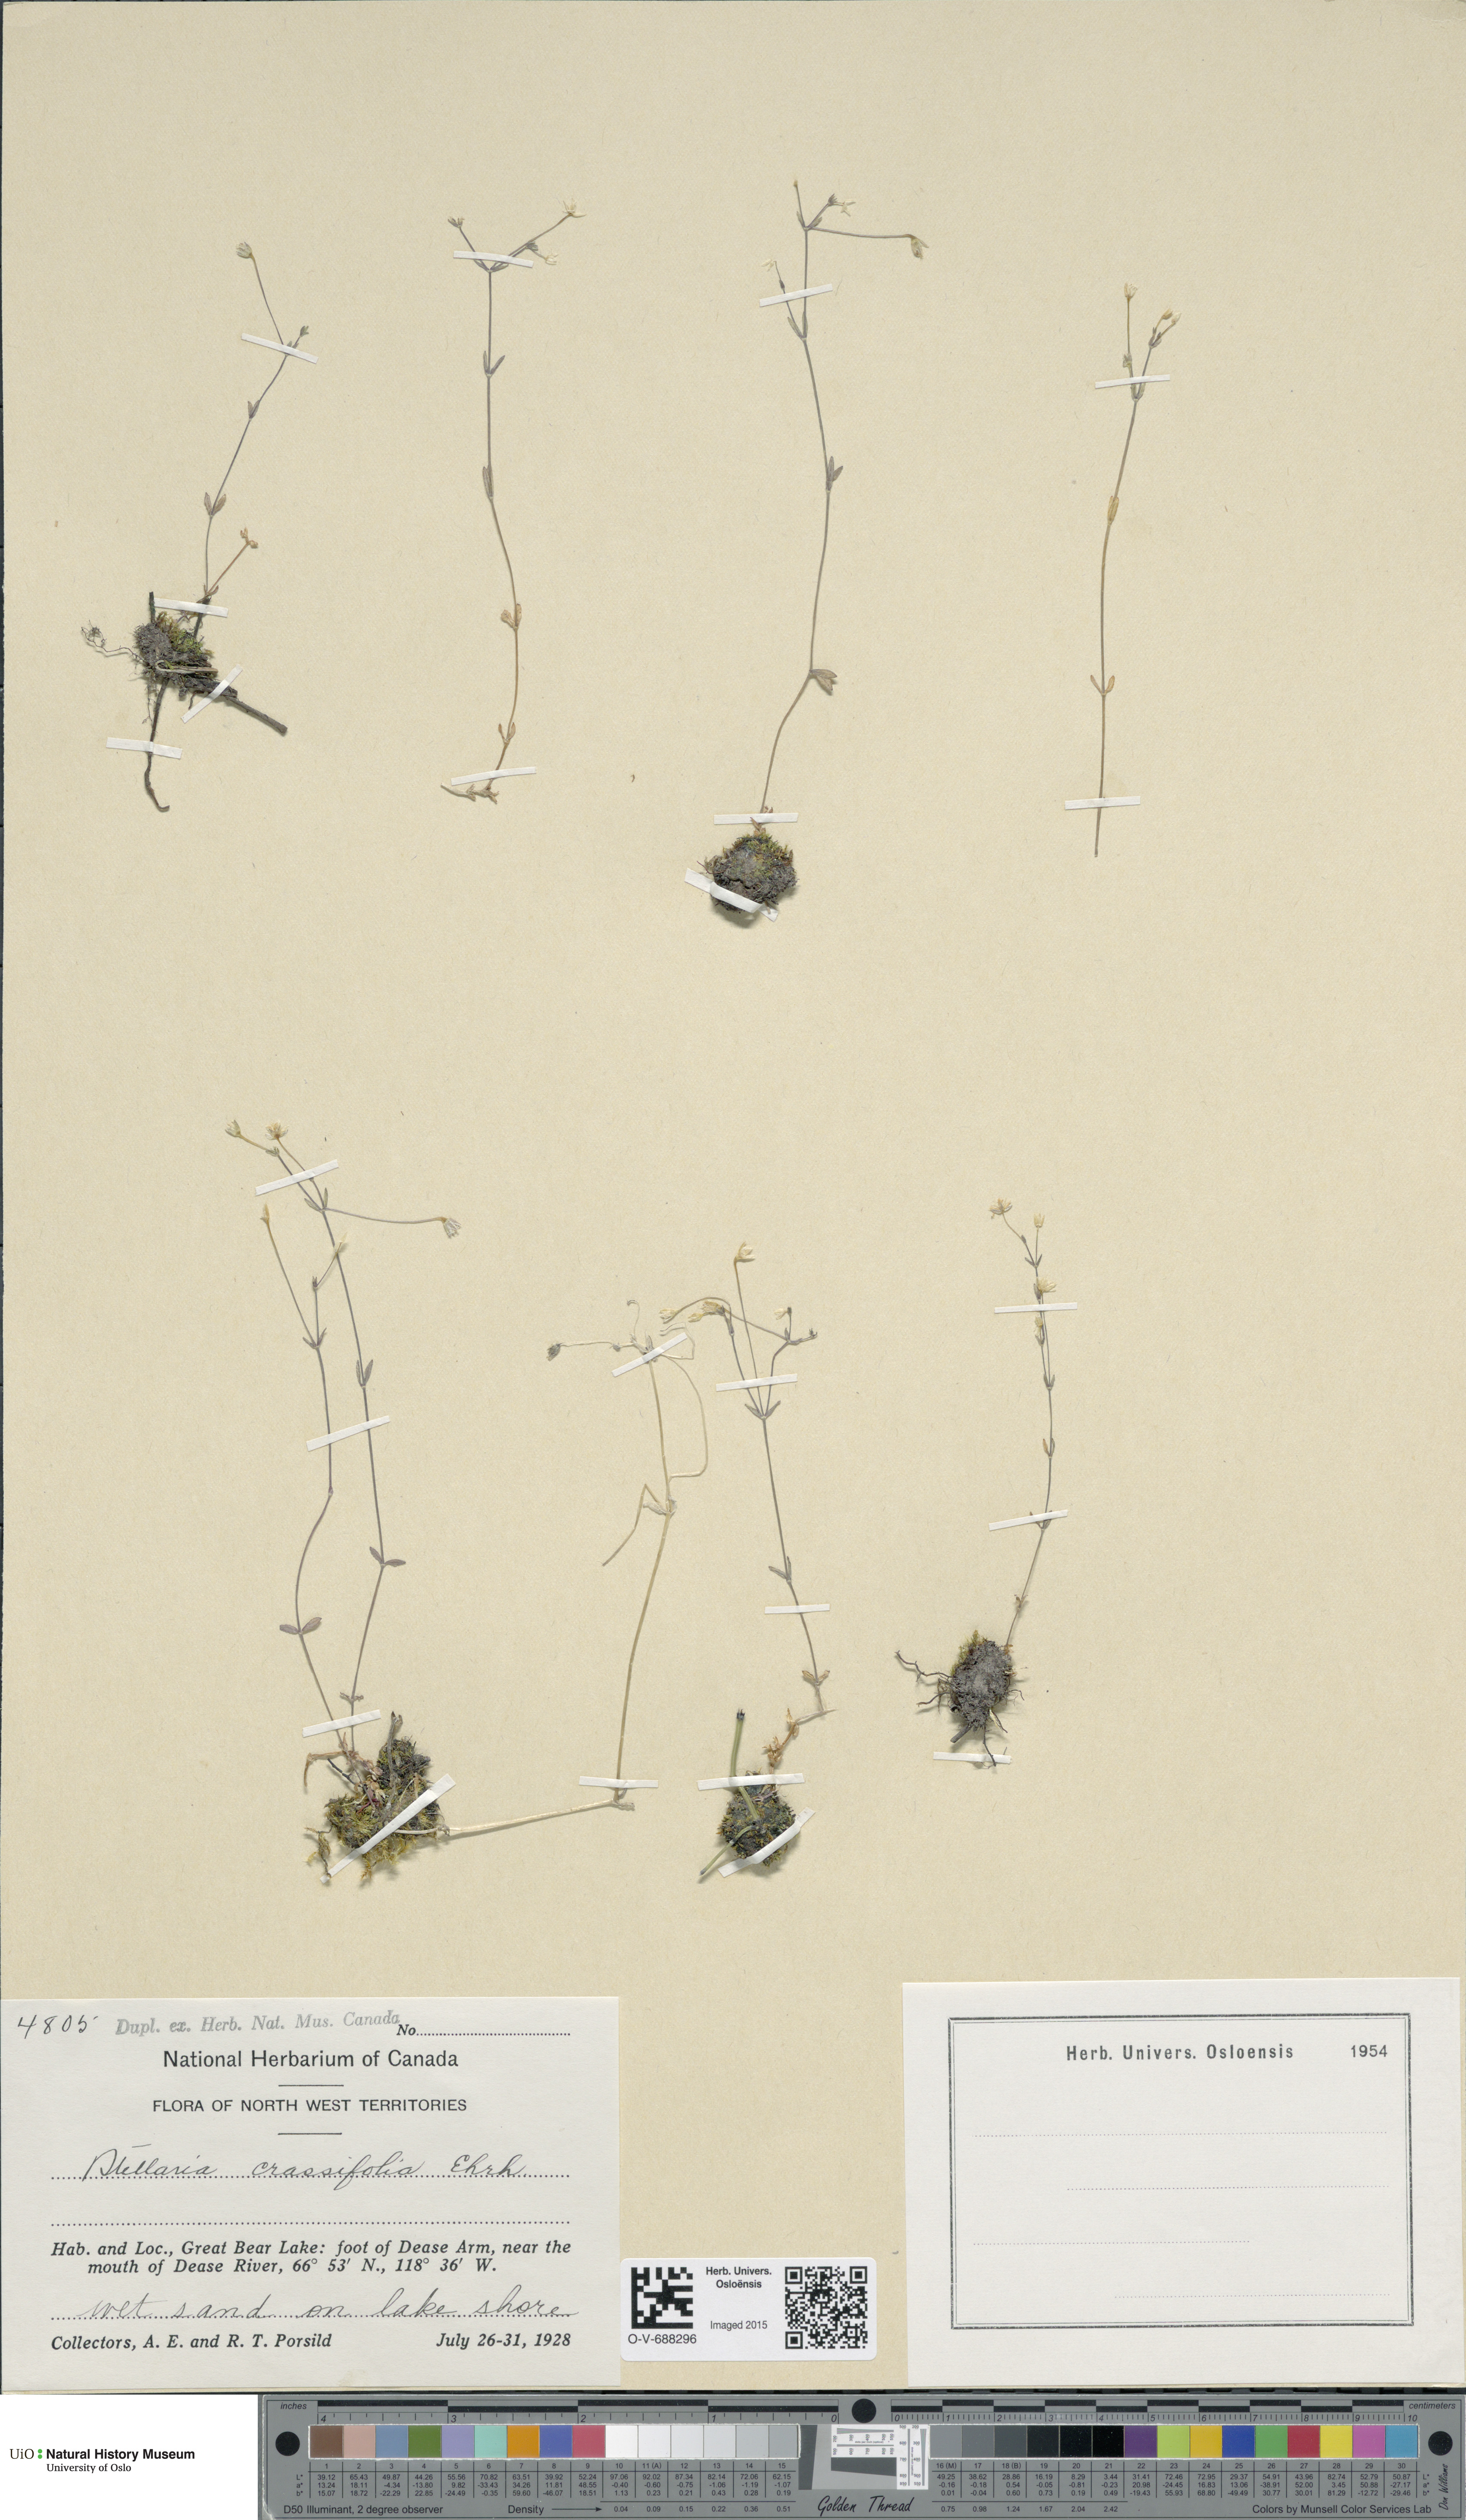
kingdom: Plantae
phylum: Tracheophyta
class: Magnoliopsida
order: Caryophyllales
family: Caryophyllaceae
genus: Stellaria
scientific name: Stellaria crassifolia
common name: Fleshy starwort
